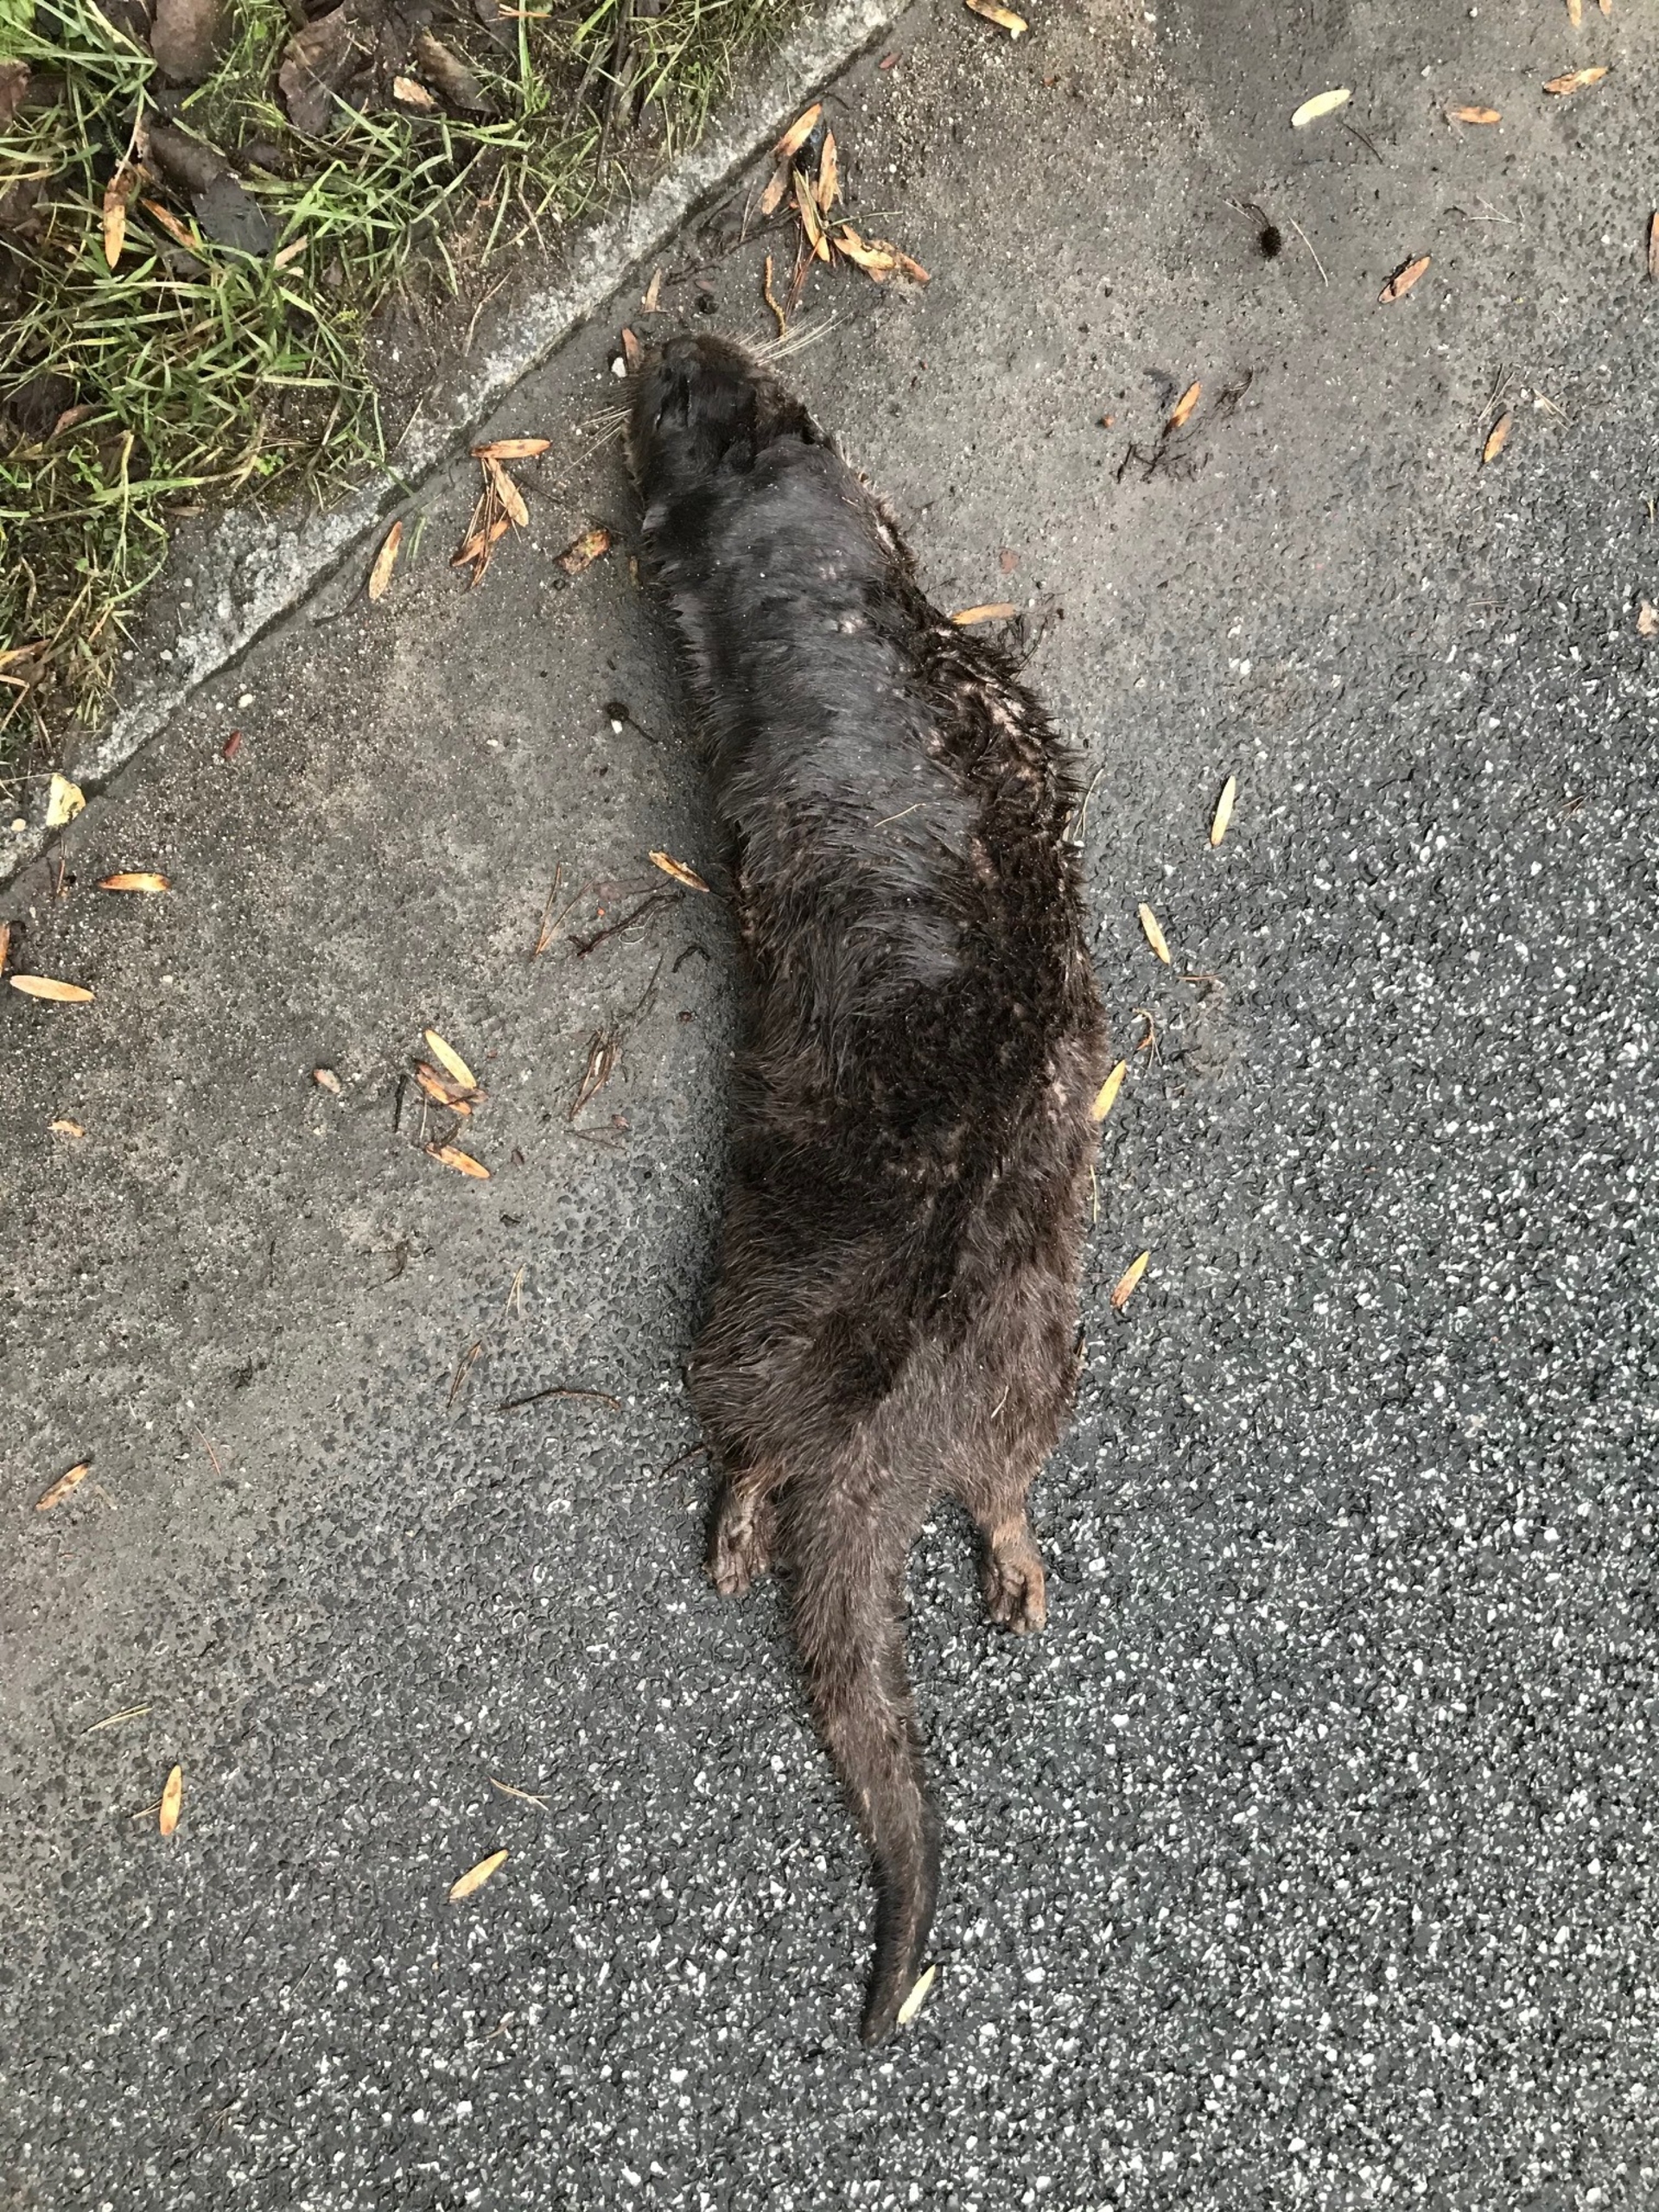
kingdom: Animalia
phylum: Chordata
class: Mammalia
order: Carnivora
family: Mustelidae
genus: Lutra
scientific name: Lutra lutra
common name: Odder
